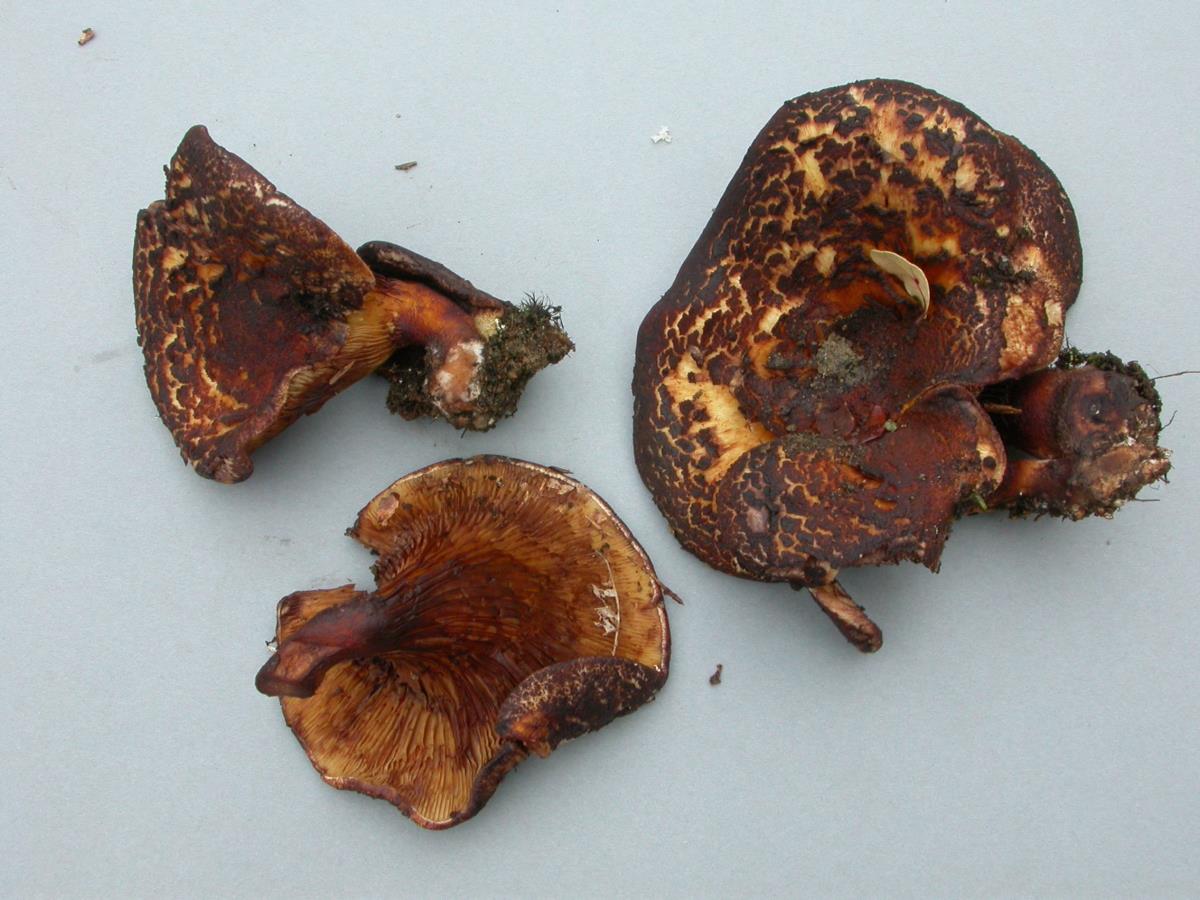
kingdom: Fungi
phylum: Basidiomycota
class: Agaricomycetes
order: Boletales
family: Serpulaceae
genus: Austropaxillus
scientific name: Austropaxillus squarrosus
